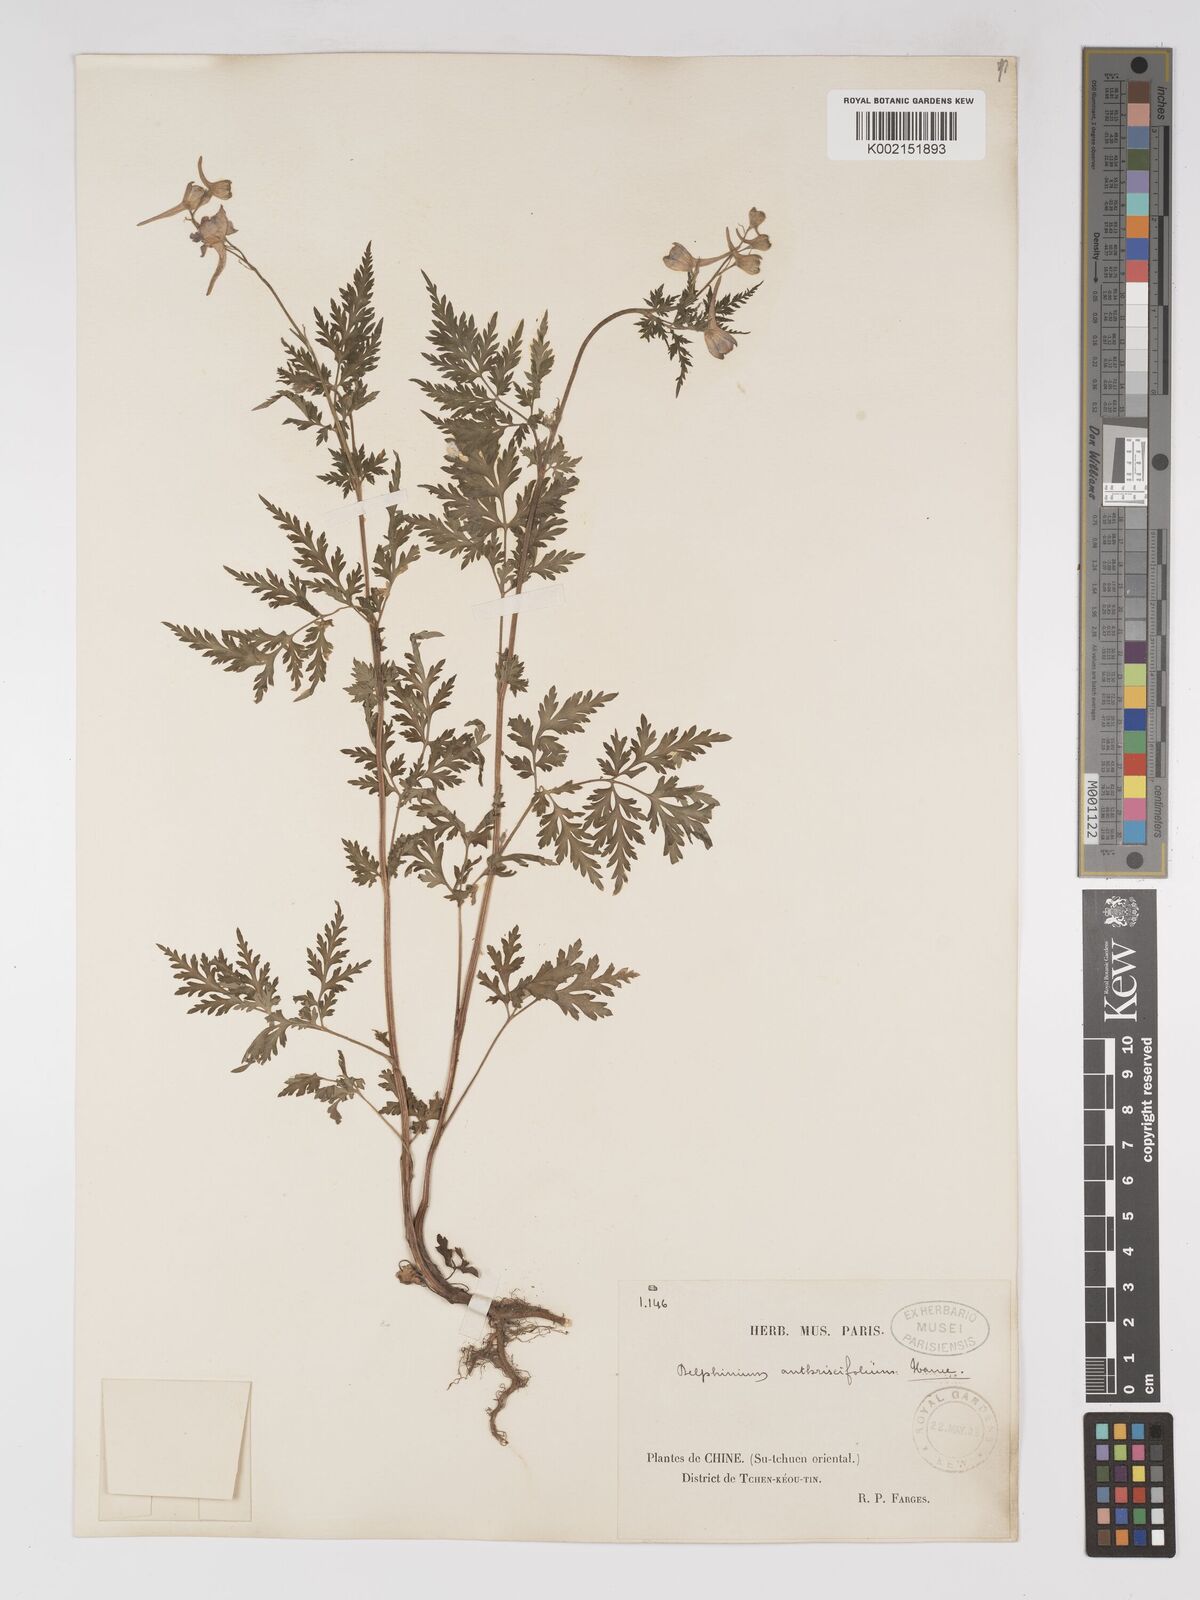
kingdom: Plantae
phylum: Tracheophyta
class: Magnoliopsida
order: Ranunculales
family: Ranunculaceae
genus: Delphinium
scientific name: Delphinium anthriscifolium
